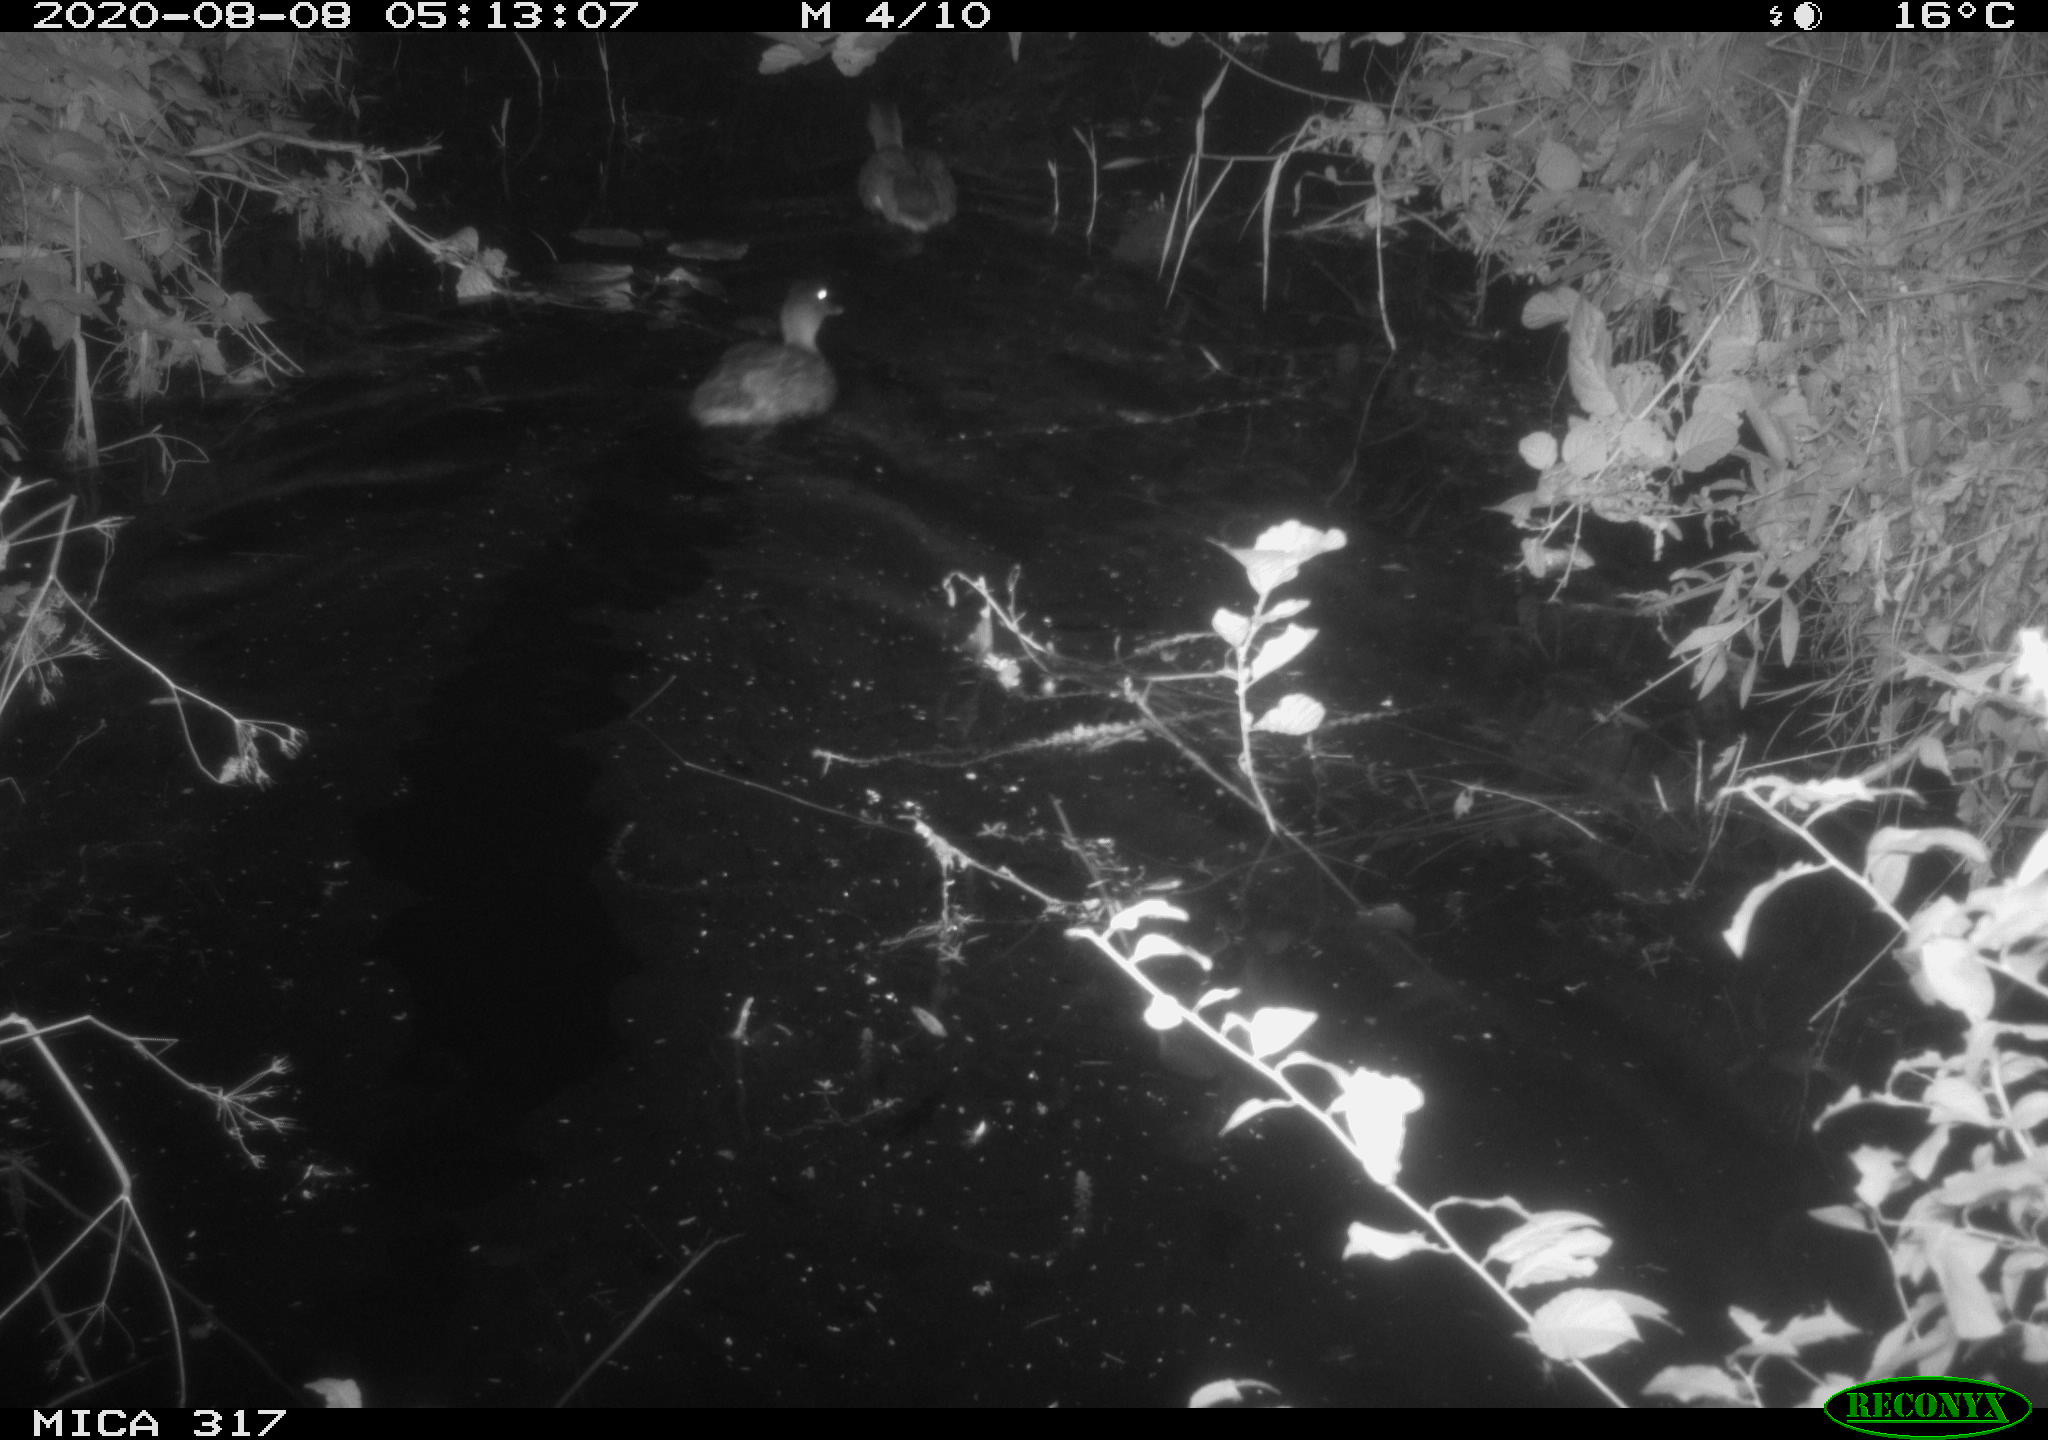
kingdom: Animalia
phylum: Chordata
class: Aves
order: Anseriformes
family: Anatidae
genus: Anas
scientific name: Anas platyrhynchos
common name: Mallard
